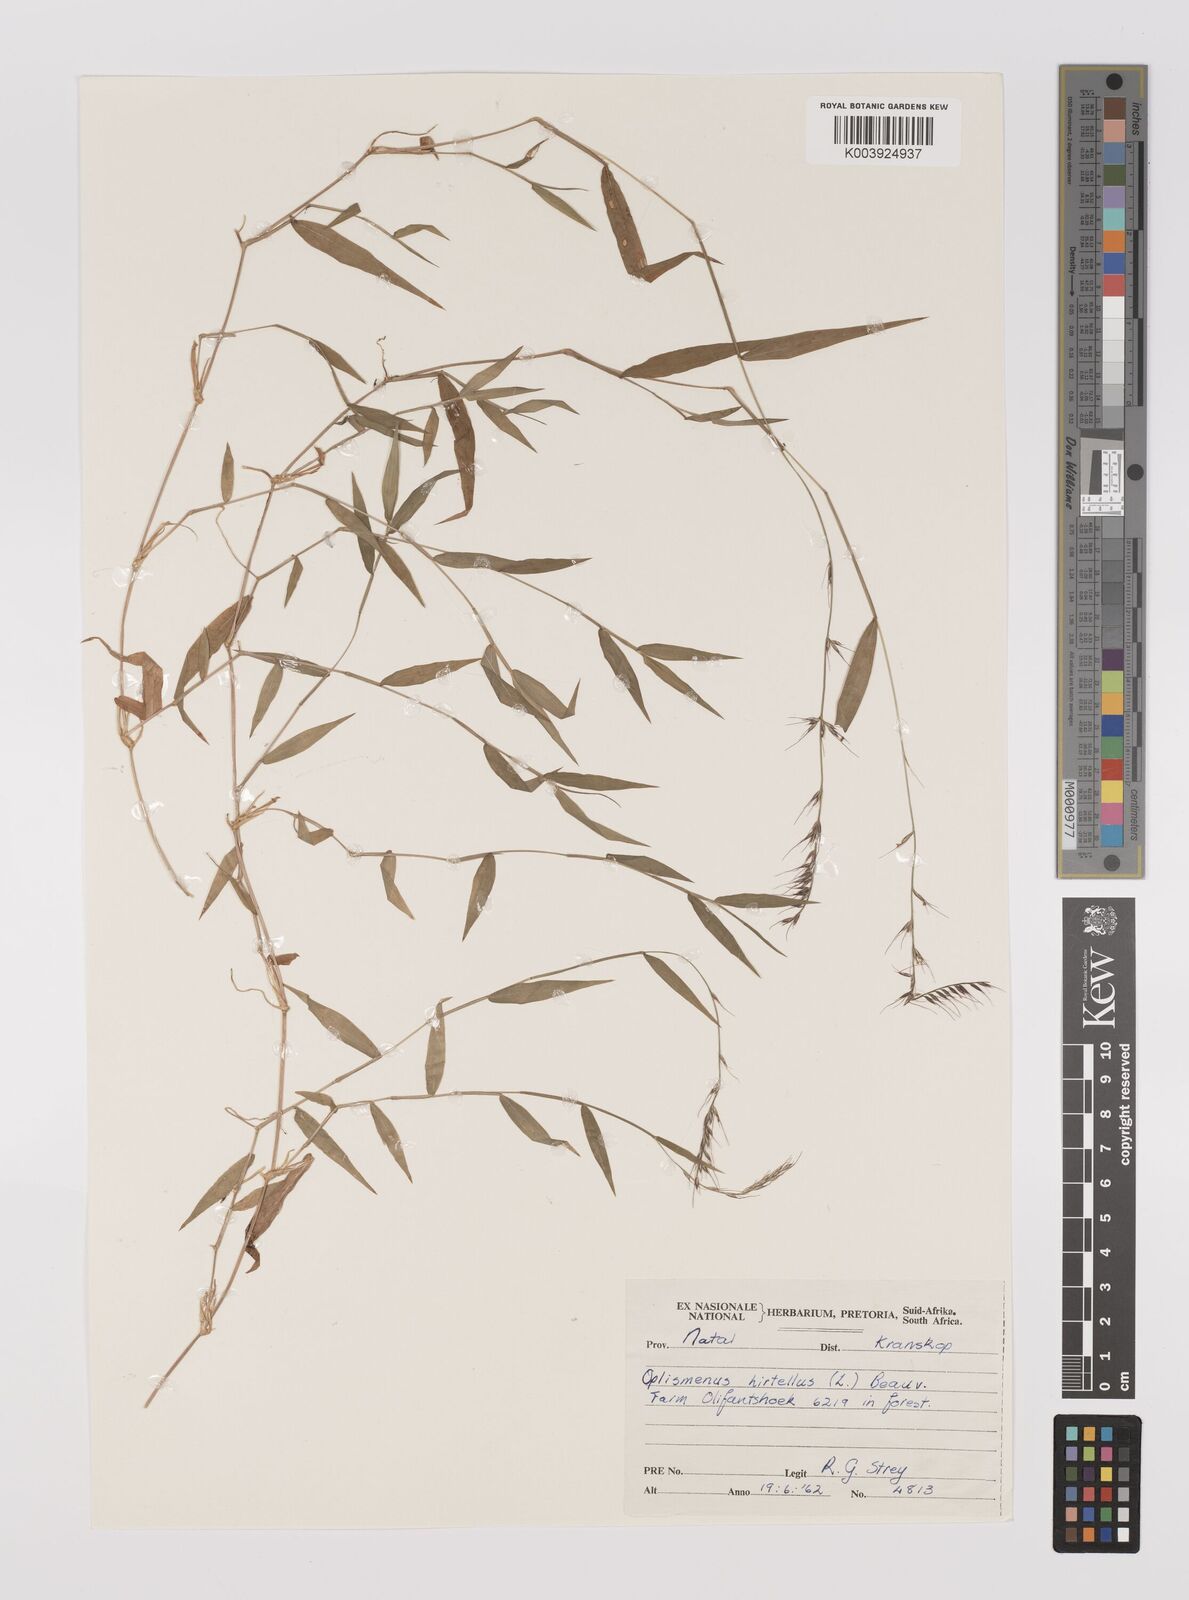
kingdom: Plantae
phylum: Tracheophyta
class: Liliopsida
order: Poales
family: Poaceae
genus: Oplismenus
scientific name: Oplismenus undulatifolius
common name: Wavyleaf basketgrass
